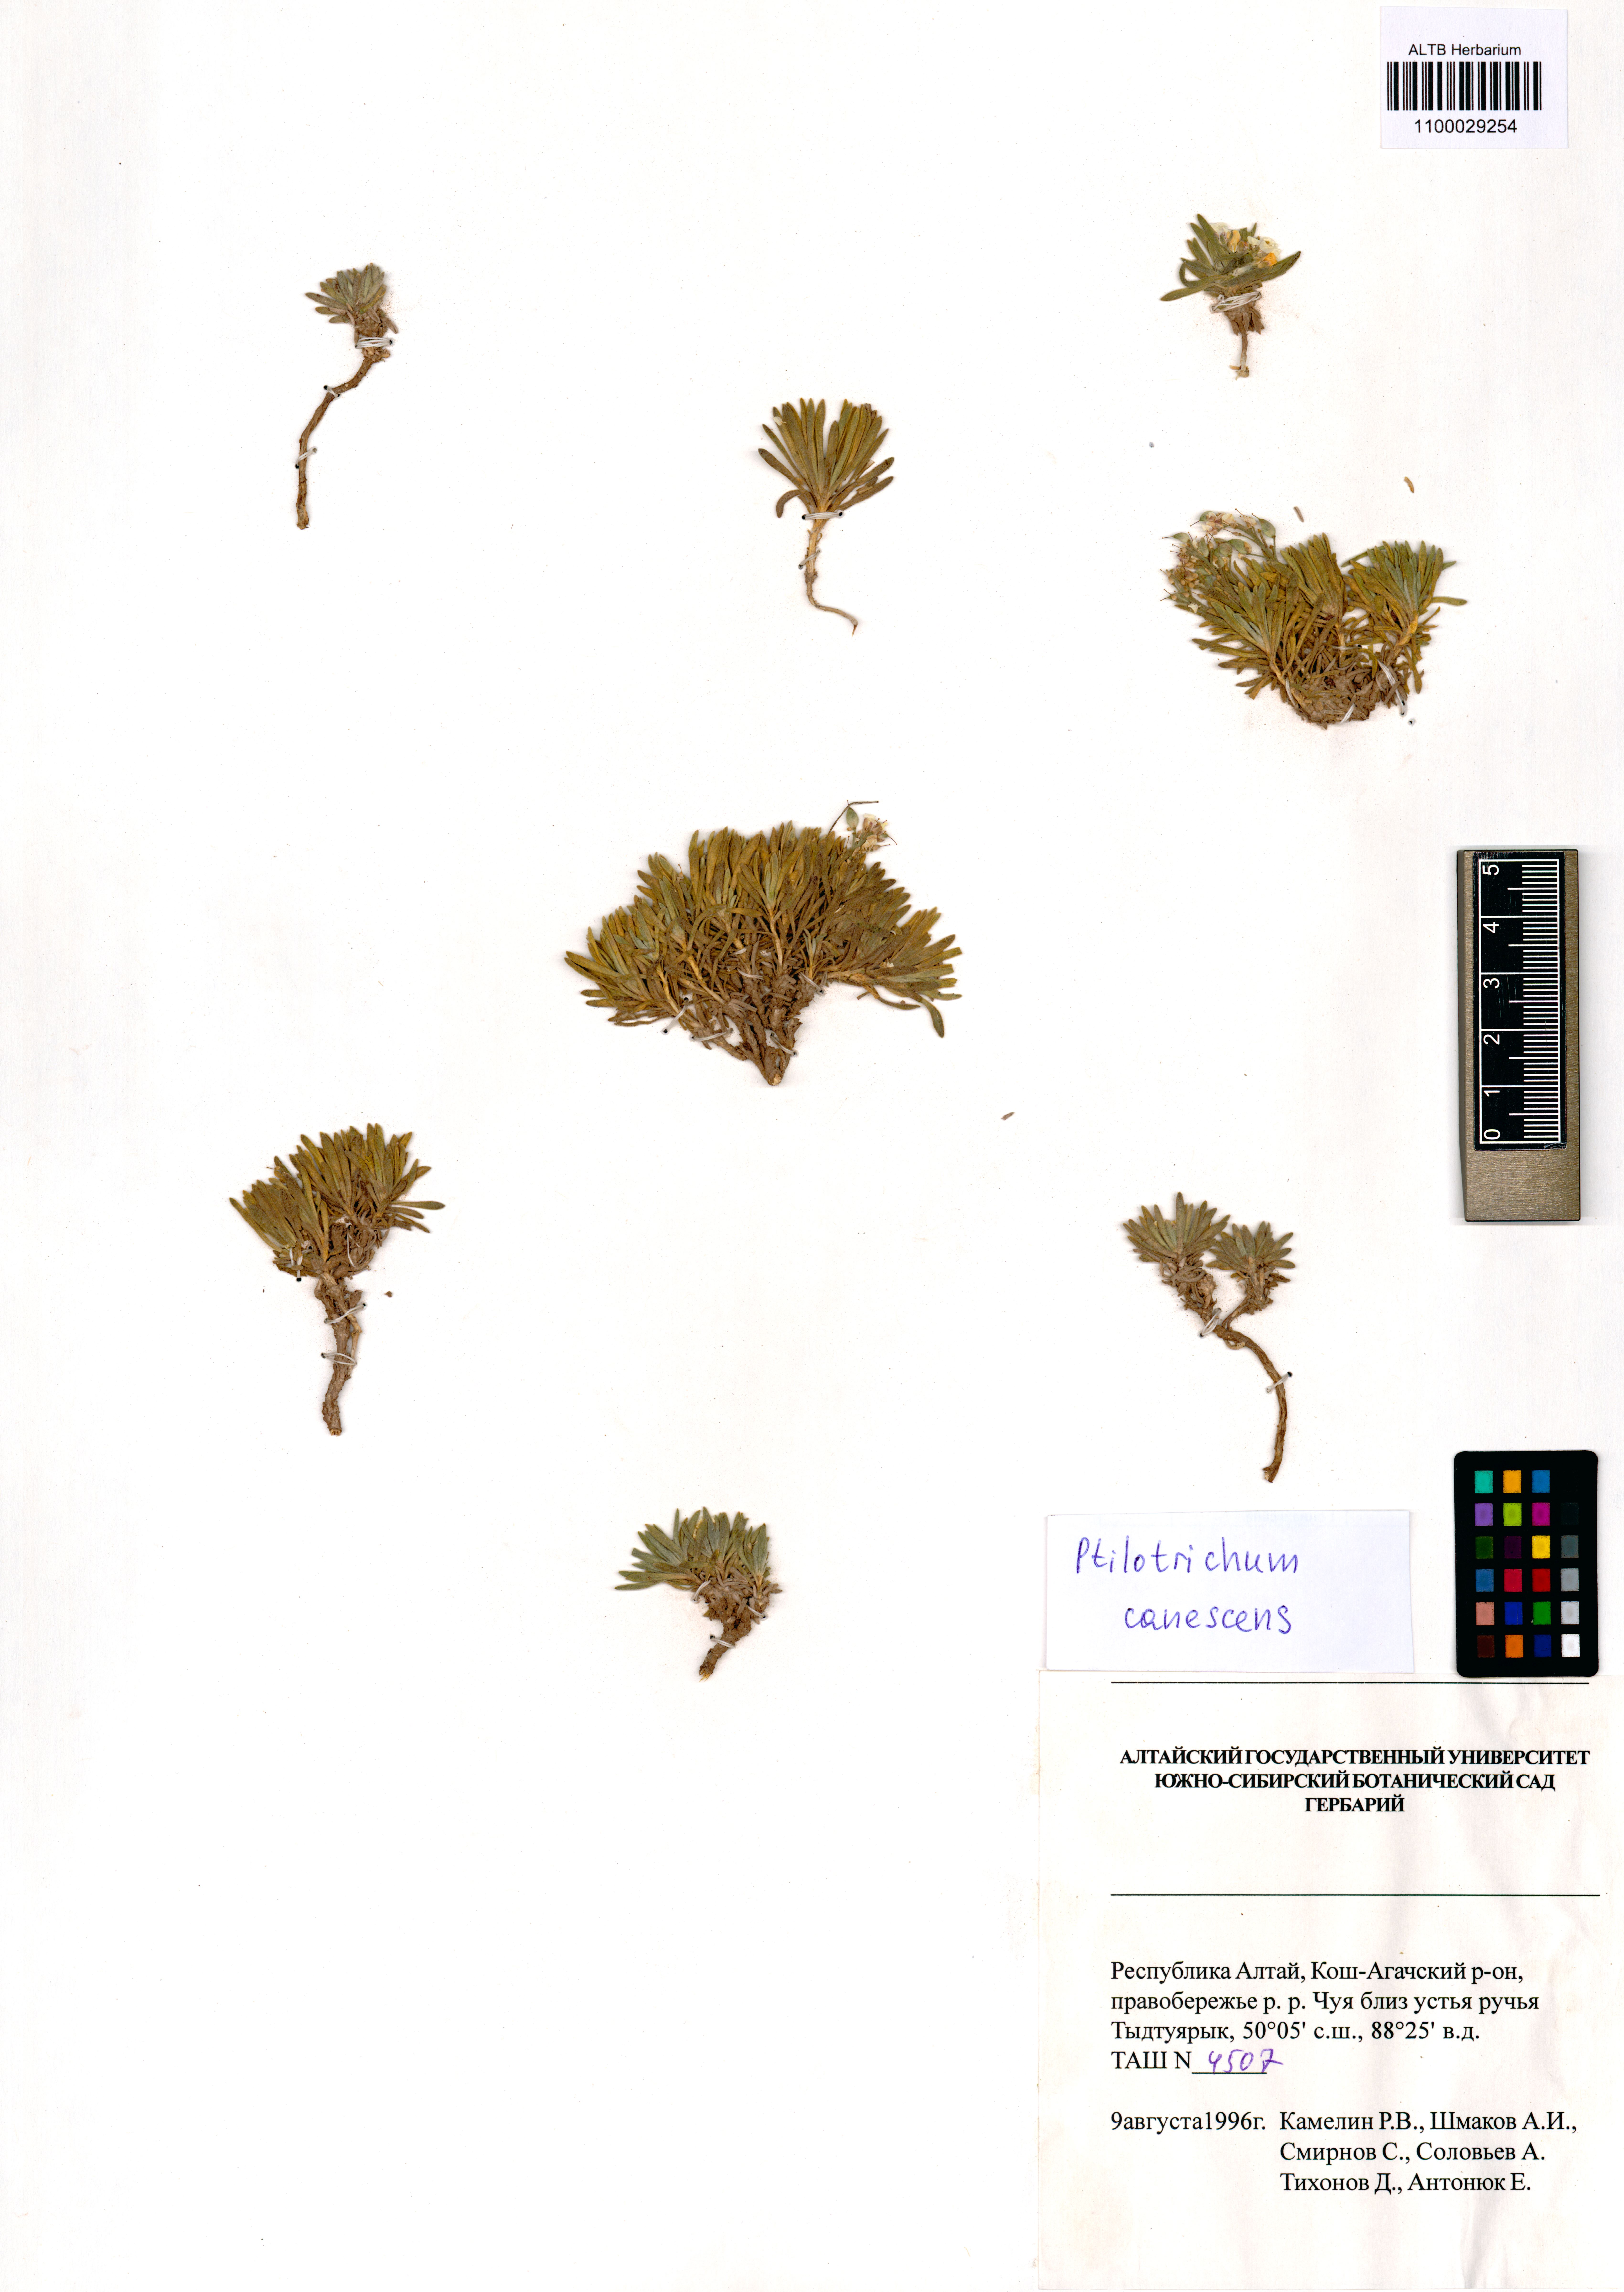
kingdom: Plantae
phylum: Tracheophyta
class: Magnoliopsida
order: Brassicales
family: Brassicaceae
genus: Stevenia
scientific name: Stevenia canescens
